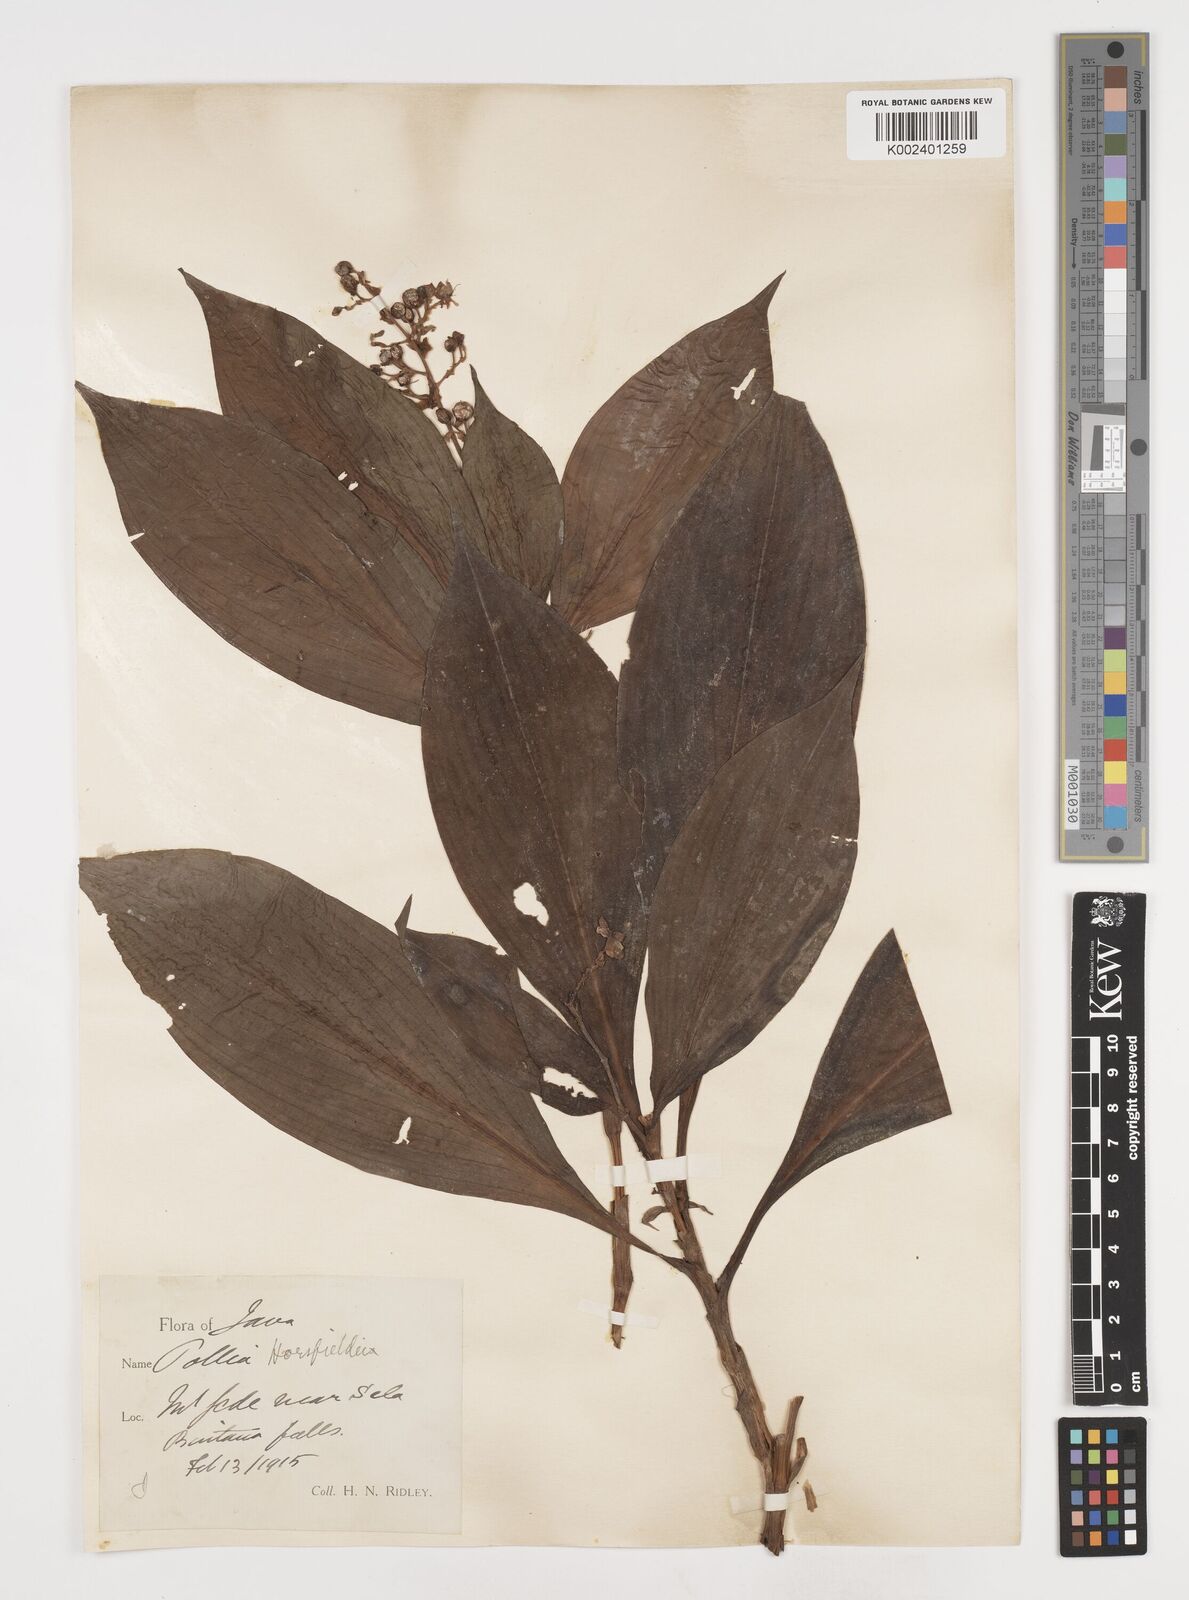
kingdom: Plantae
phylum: Tracheophyta
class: Liliopsida
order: Commelinales
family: Commelinaceae
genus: Pollia
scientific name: Pollia horsfieldii
